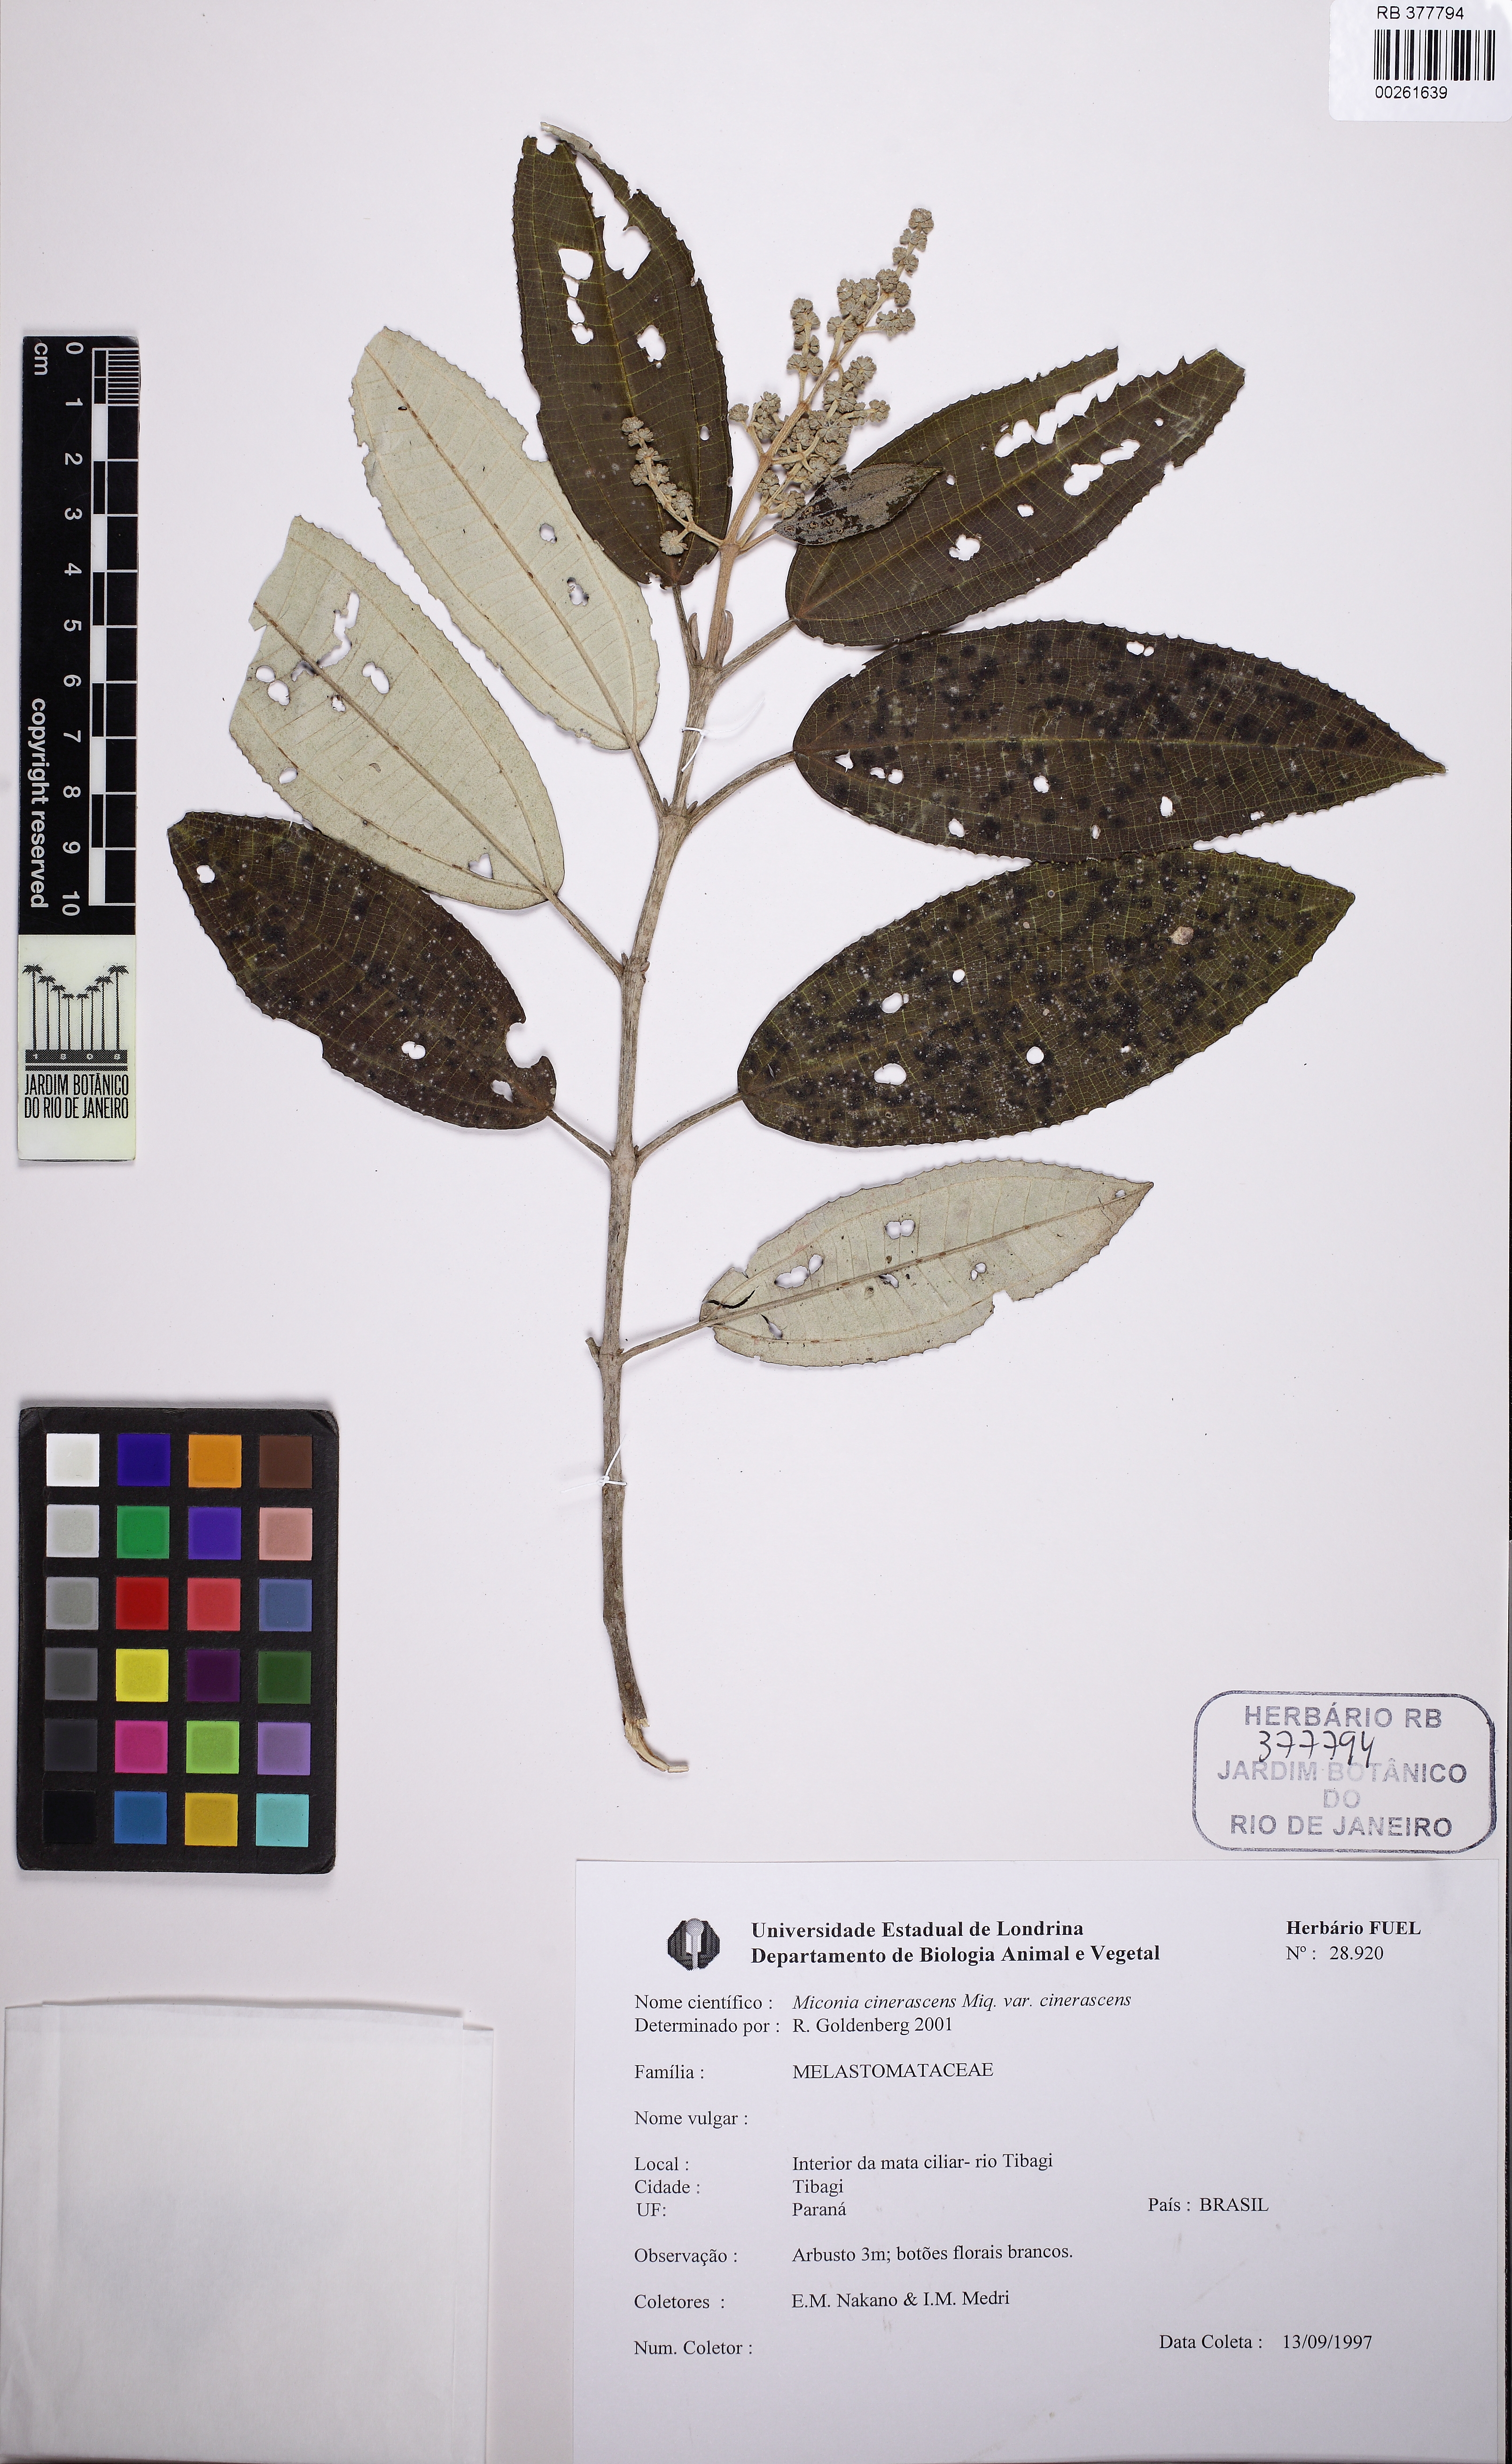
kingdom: Plantae
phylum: Tracheophyta
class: Magnoliopsida
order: Myrtales
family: Melastomataceae
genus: Miconia
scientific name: Miconia cinerascens
